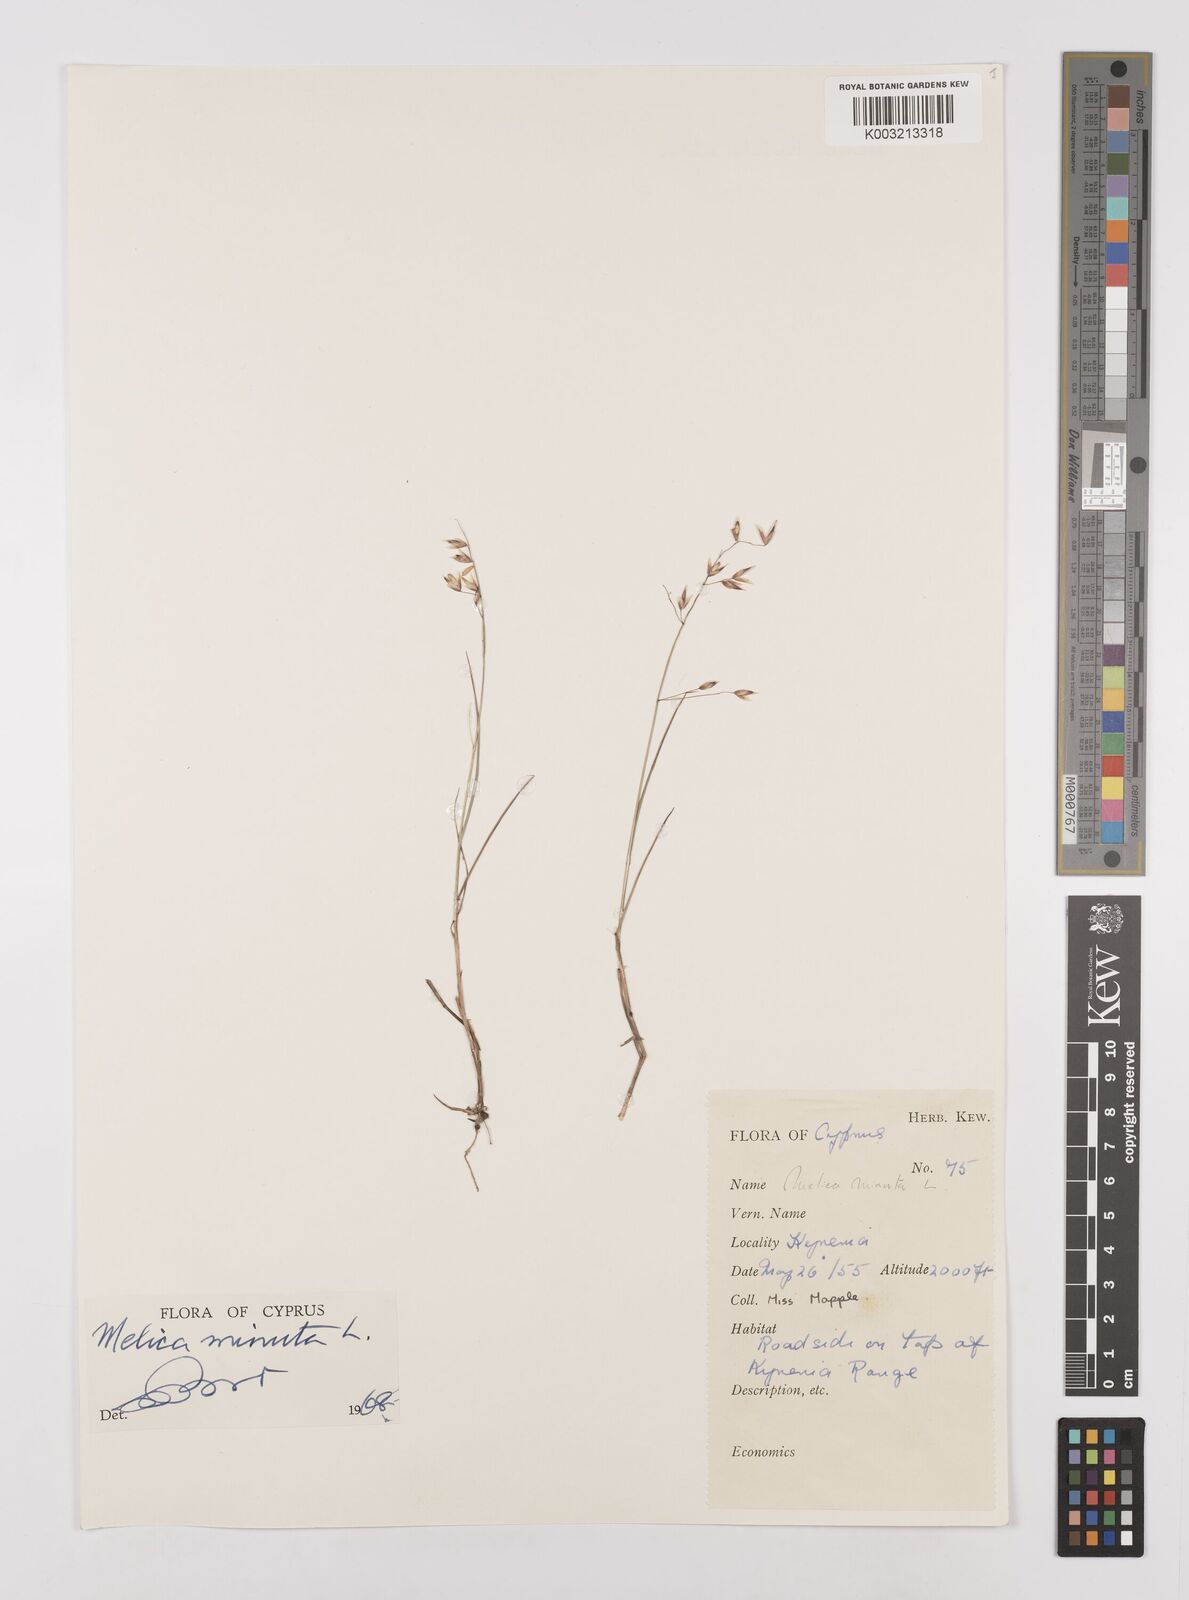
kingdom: Plantae
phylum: Tracheophyta
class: Liliopsida
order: Poales
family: Poaceae
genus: Melica
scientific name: Melica minuta
